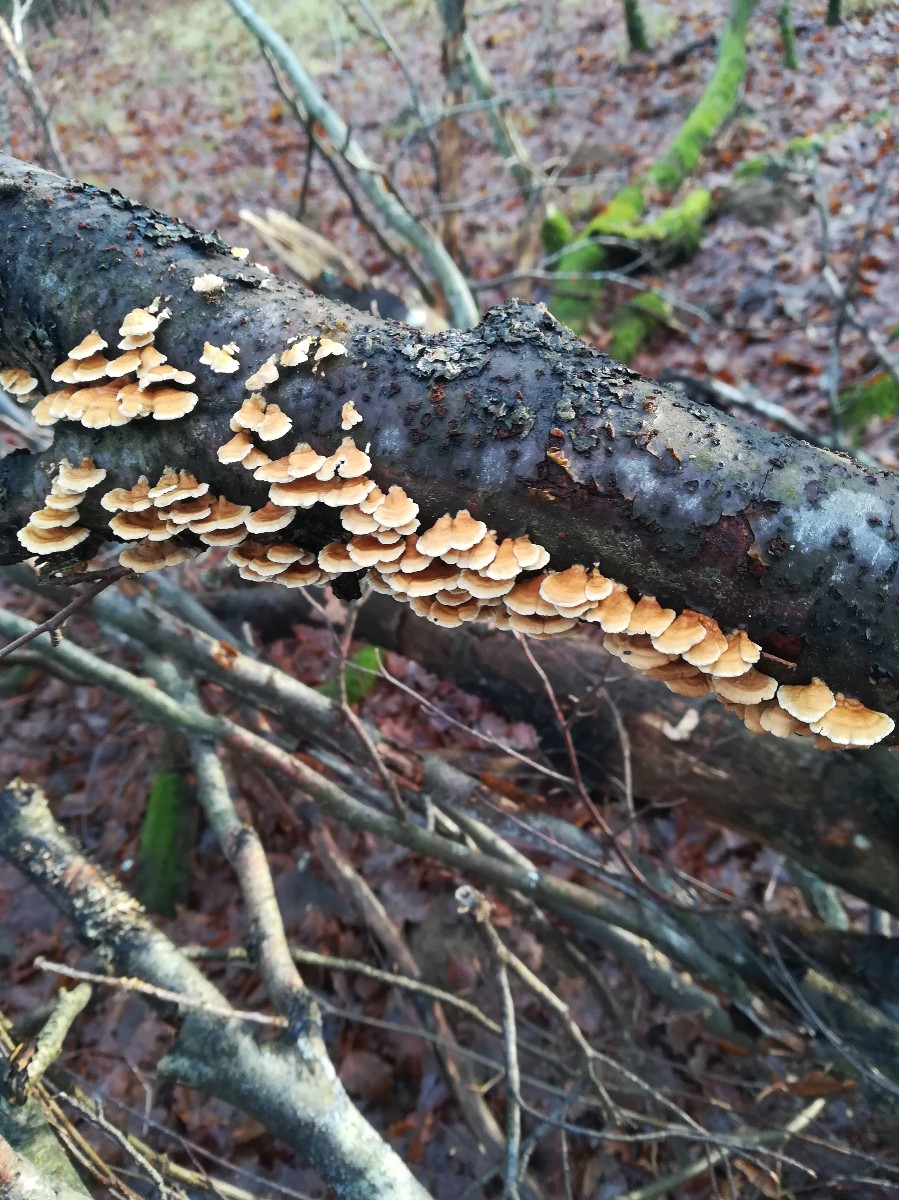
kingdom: Fungi
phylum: Basidiomycota
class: Agaricomycetes
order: Amylocorticiales
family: Amylocorticiaceae
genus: Plicaturopsis
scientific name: Plicaturopsis crispa
